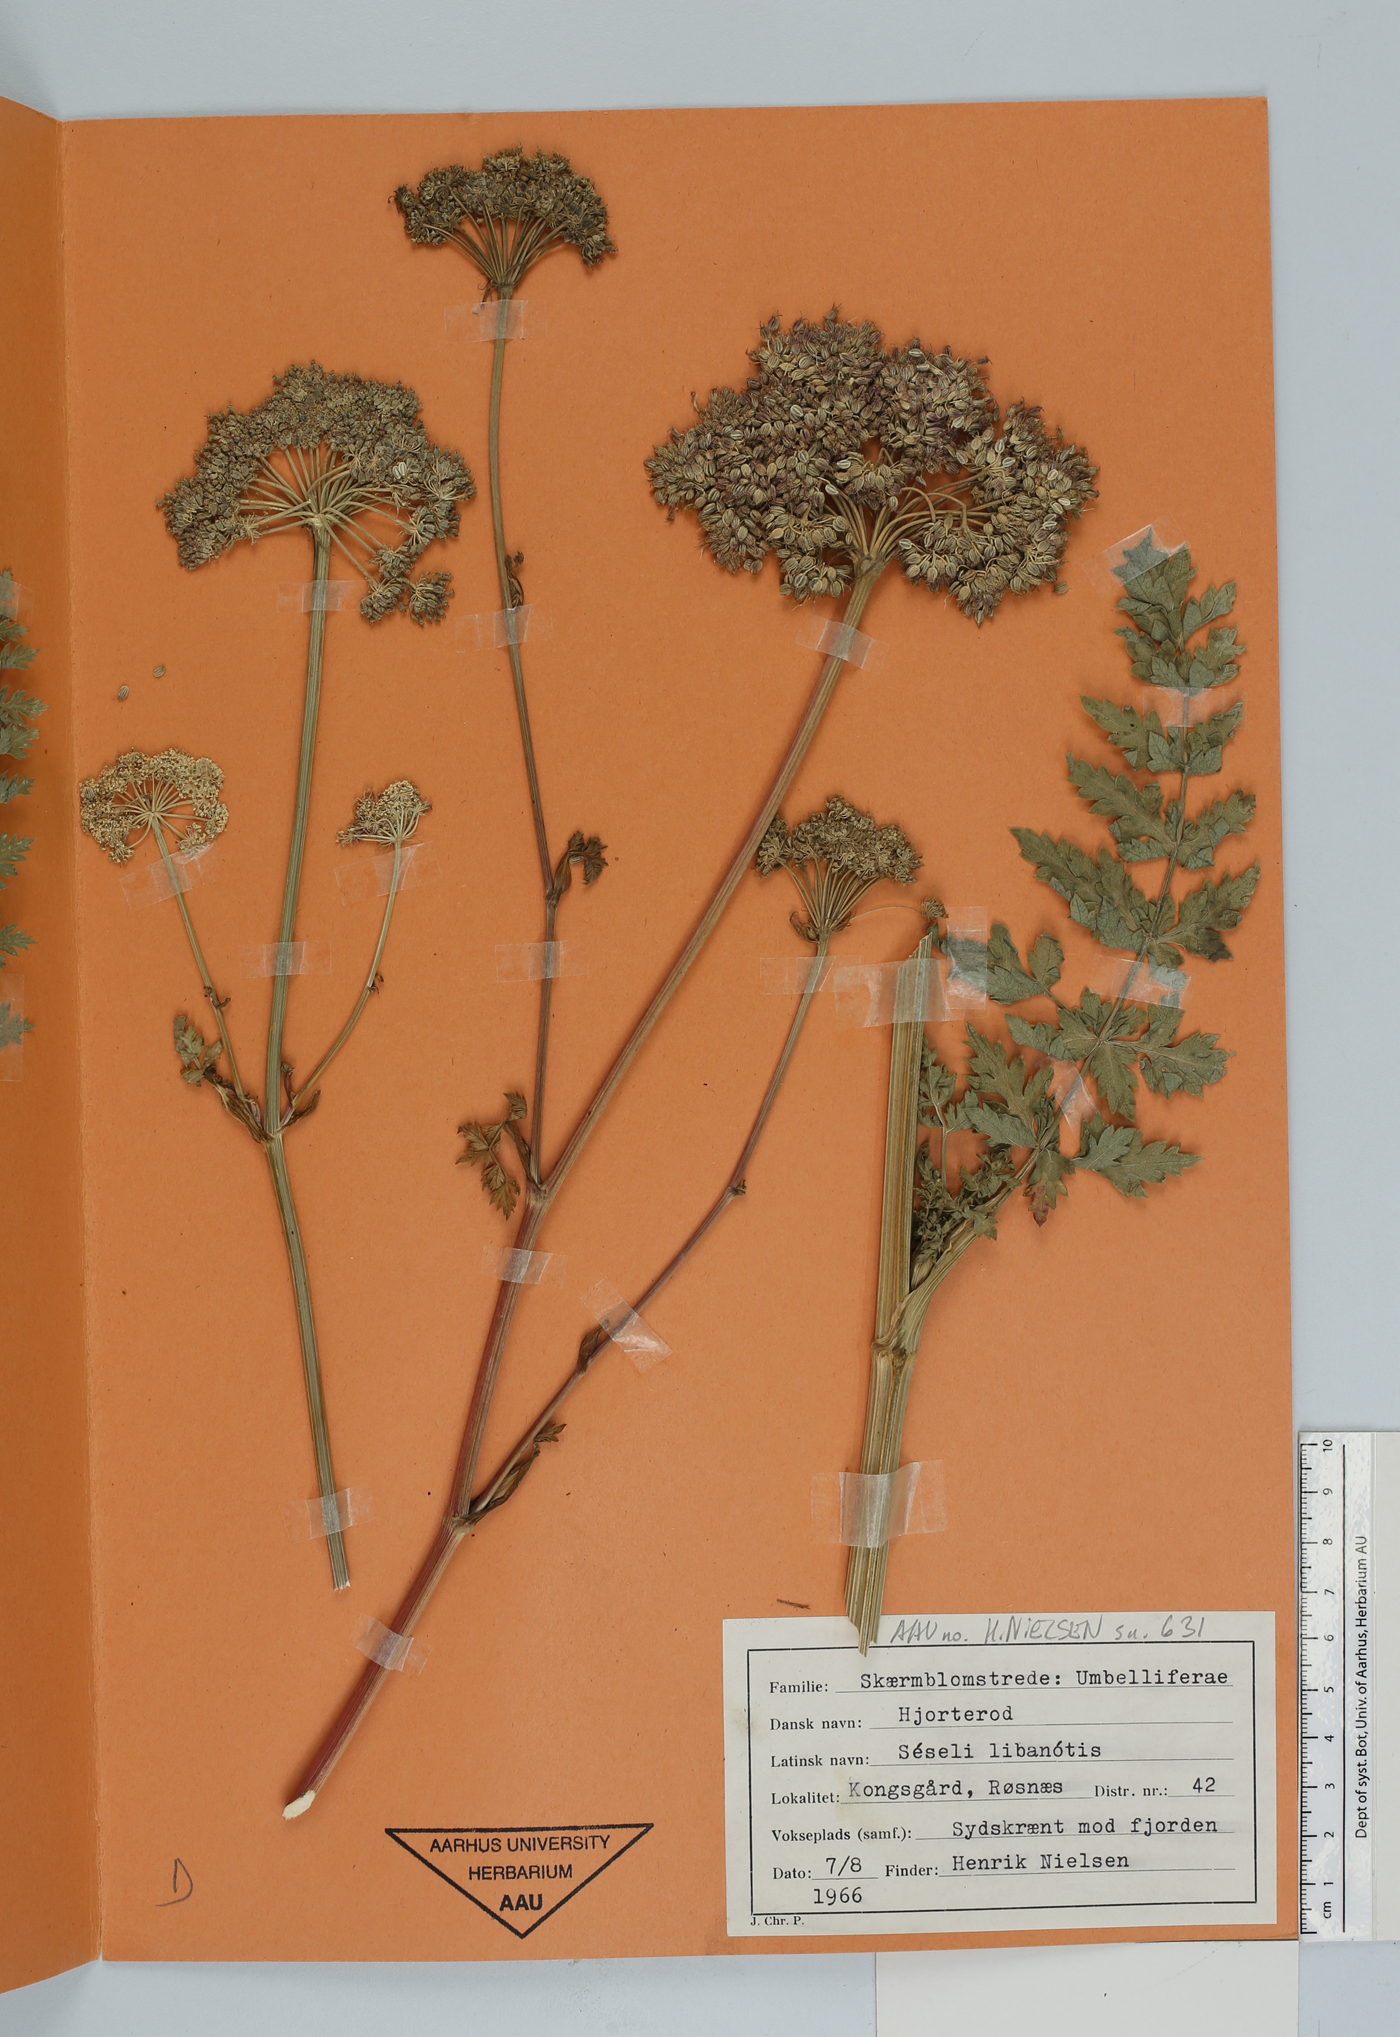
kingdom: Plantae
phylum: Tracheophyta
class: Magnoliopsida
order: Apiales
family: Apiaceae
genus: Seseli
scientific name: Seseli libanotis
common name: Mooncarrot
